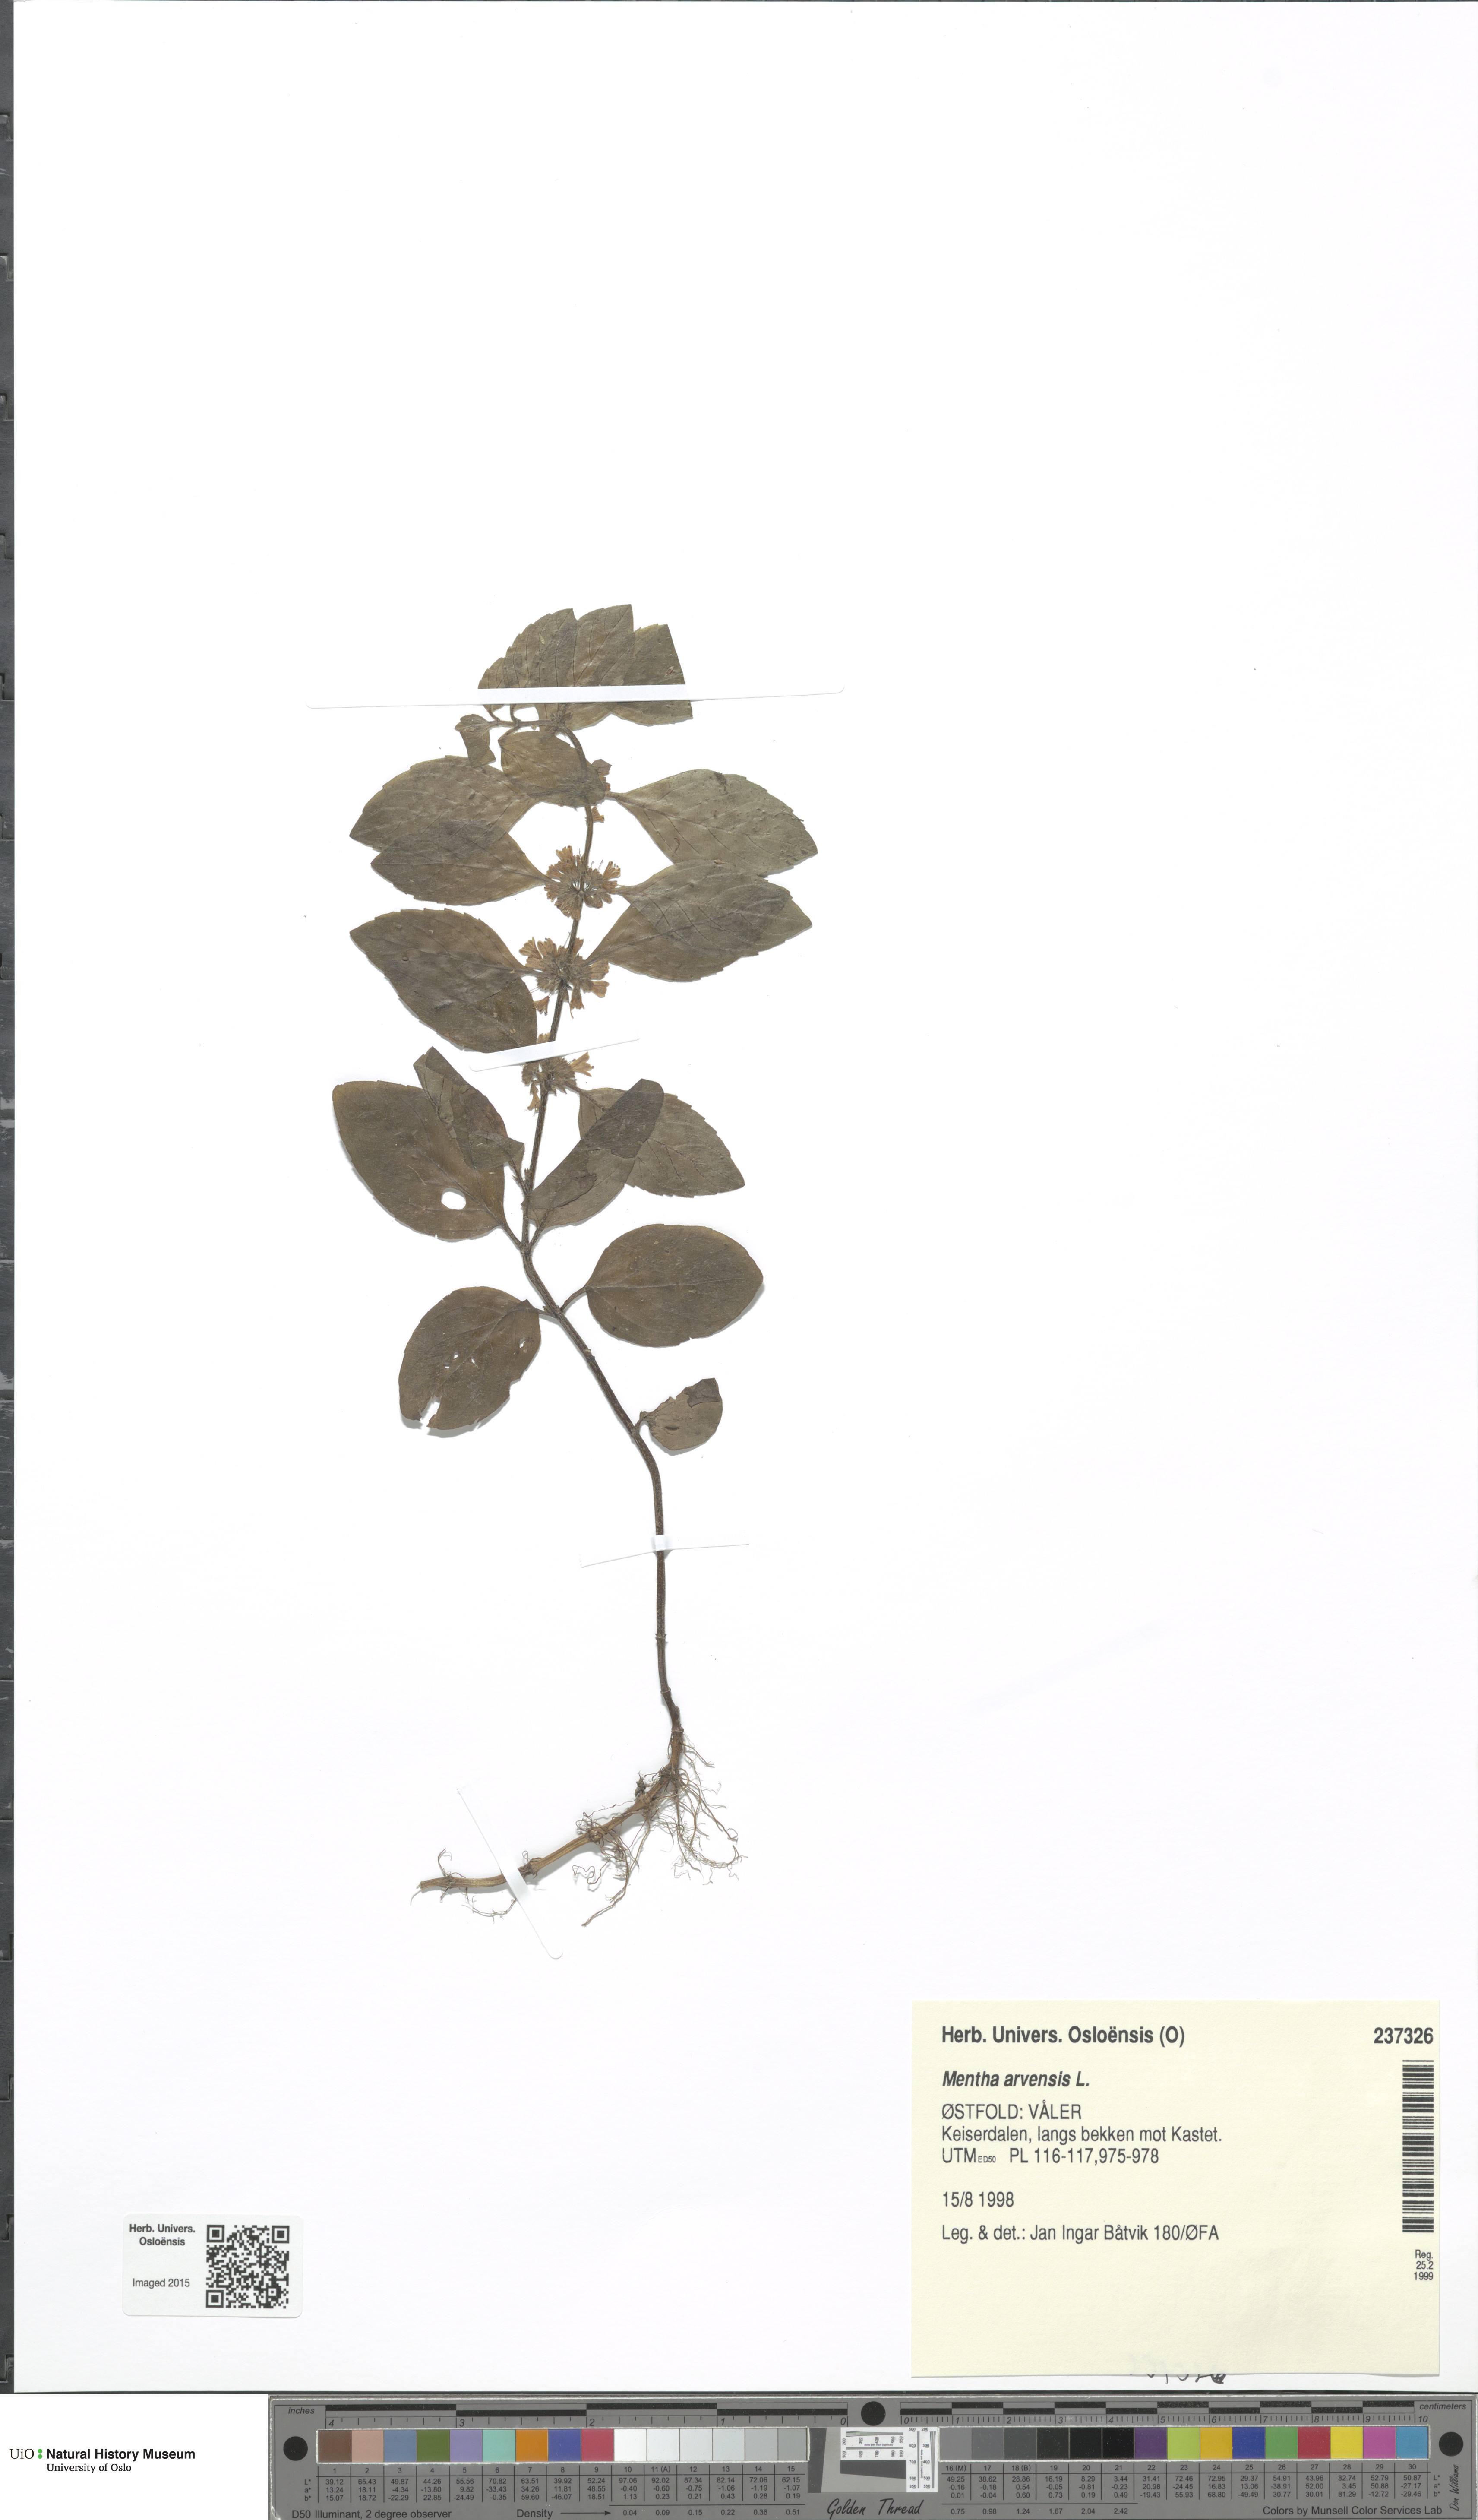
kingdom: Plantae
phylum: Tracheophyta
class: Magnoliopsida
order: Lamiales
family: Lamiaceae
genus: Mentha
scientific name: Mentha arvensis
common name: Corn mint
